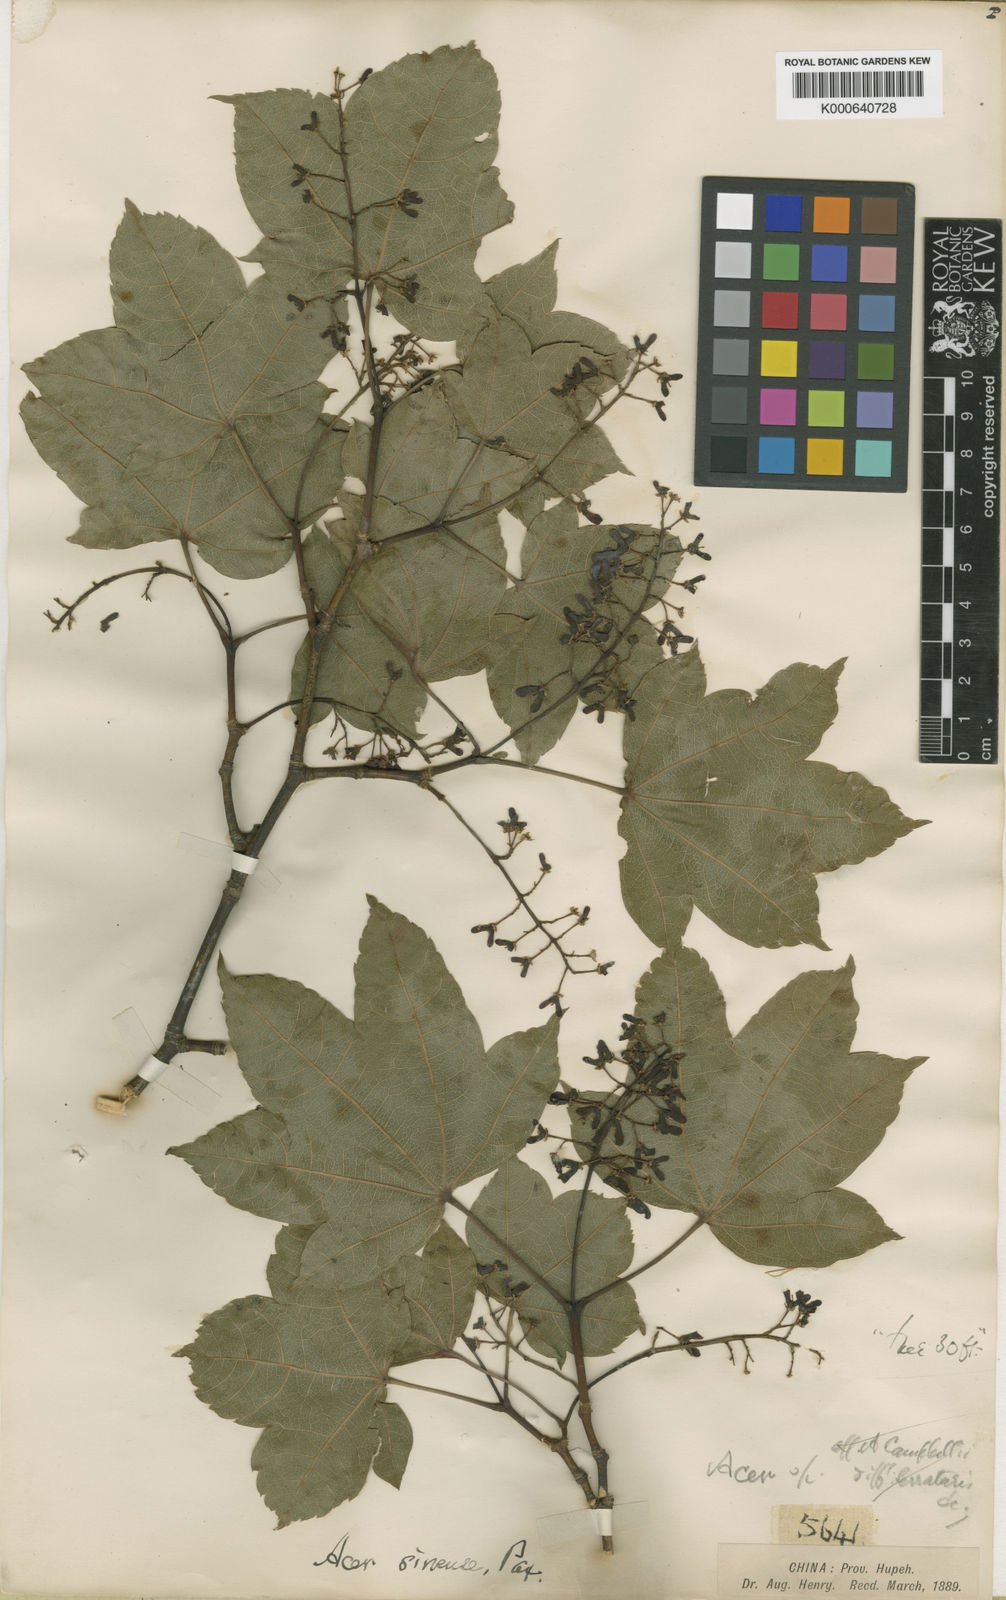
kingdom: Plantae
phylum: Tracheophyta
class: Magnoliopsida
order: Sapindales
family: Sapindaceae
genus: Acer
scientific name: Acer sinense
